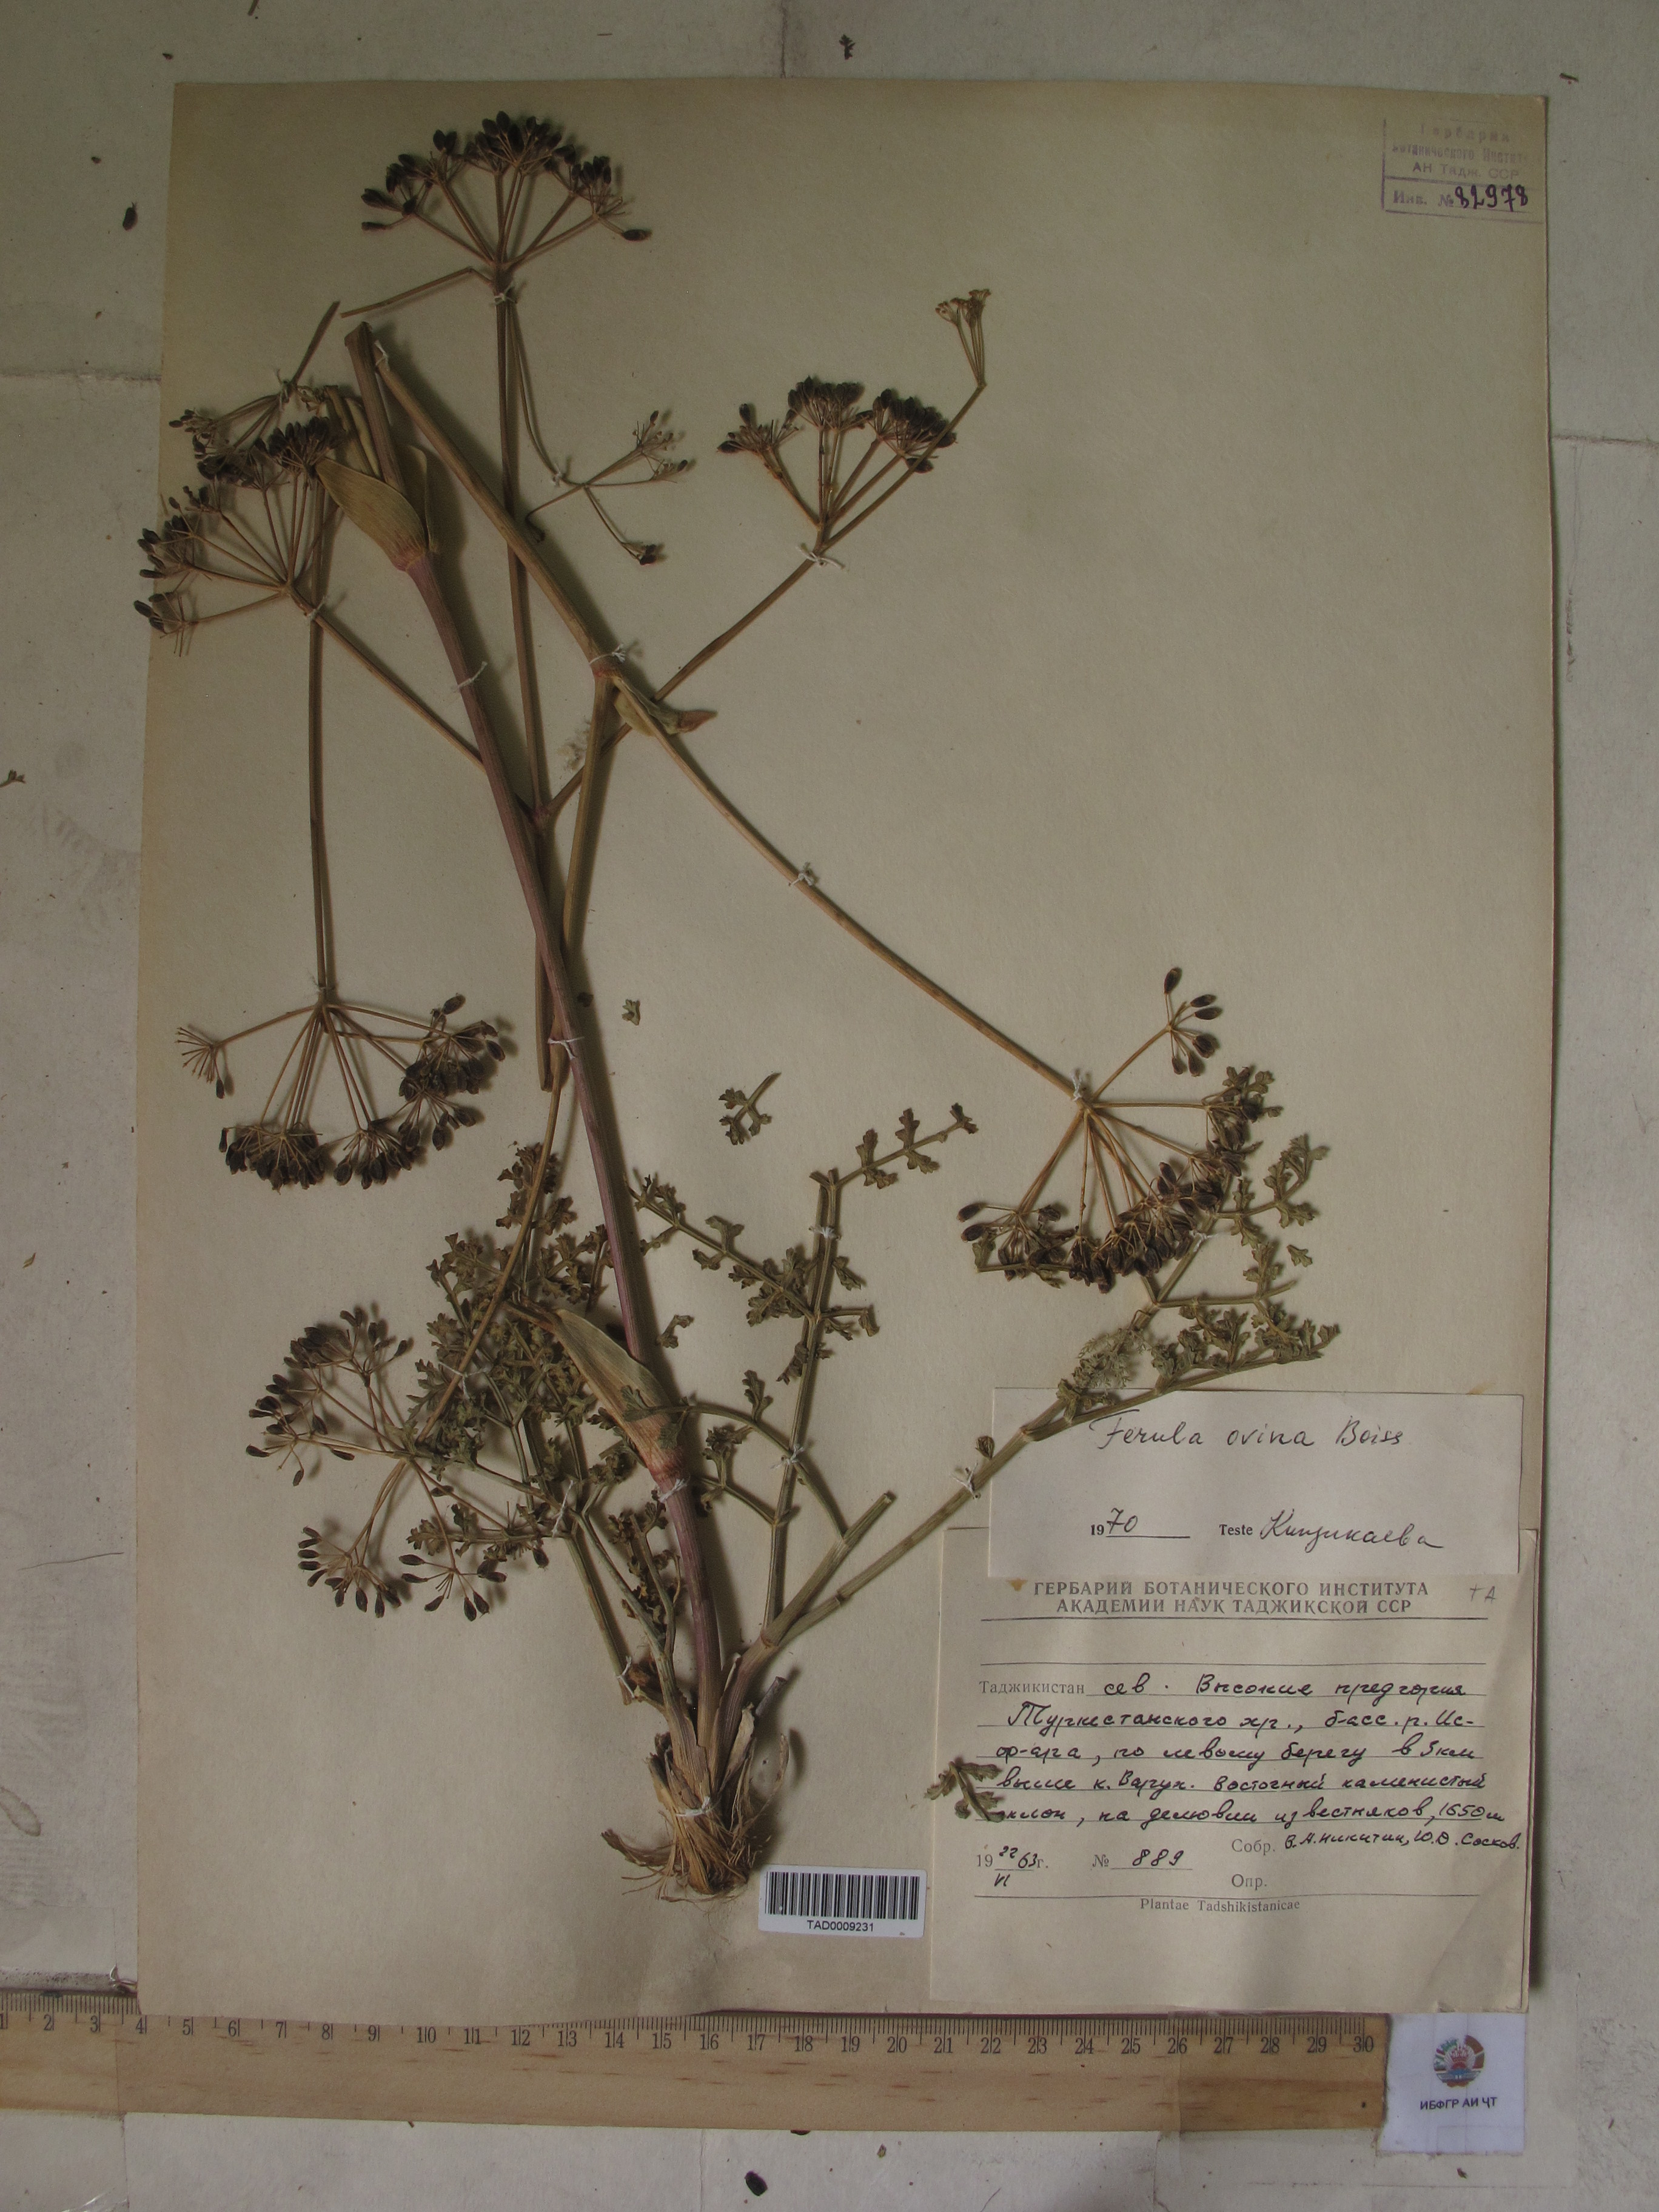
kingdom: Plantae
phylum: Tracheophyta
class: Magnoliopsida
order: Apiales
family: Apiaceae
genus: Ferula
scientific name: Ferula ovina
